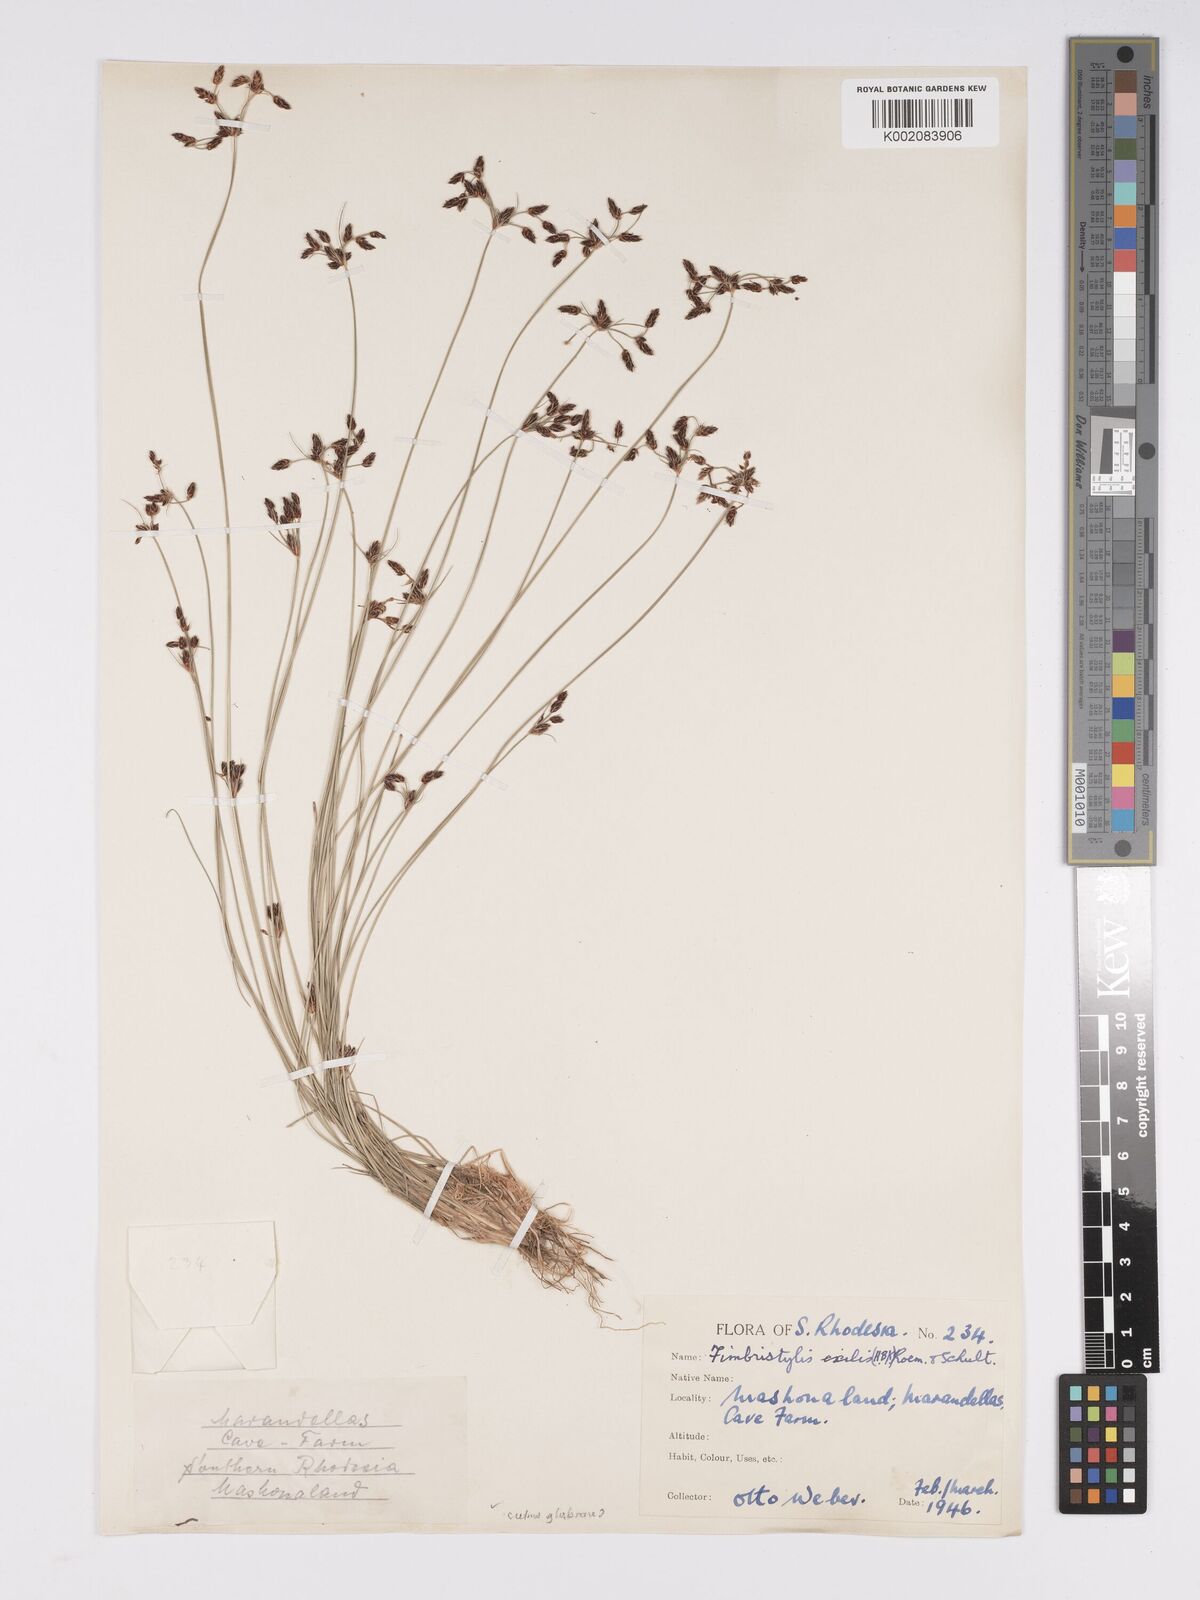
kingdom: Plantae
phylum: Tracheophyta
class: Liliopsida
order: Poales
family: Cyperaceae
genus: Bulbostylis
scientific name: Bulbostylis hispidula
